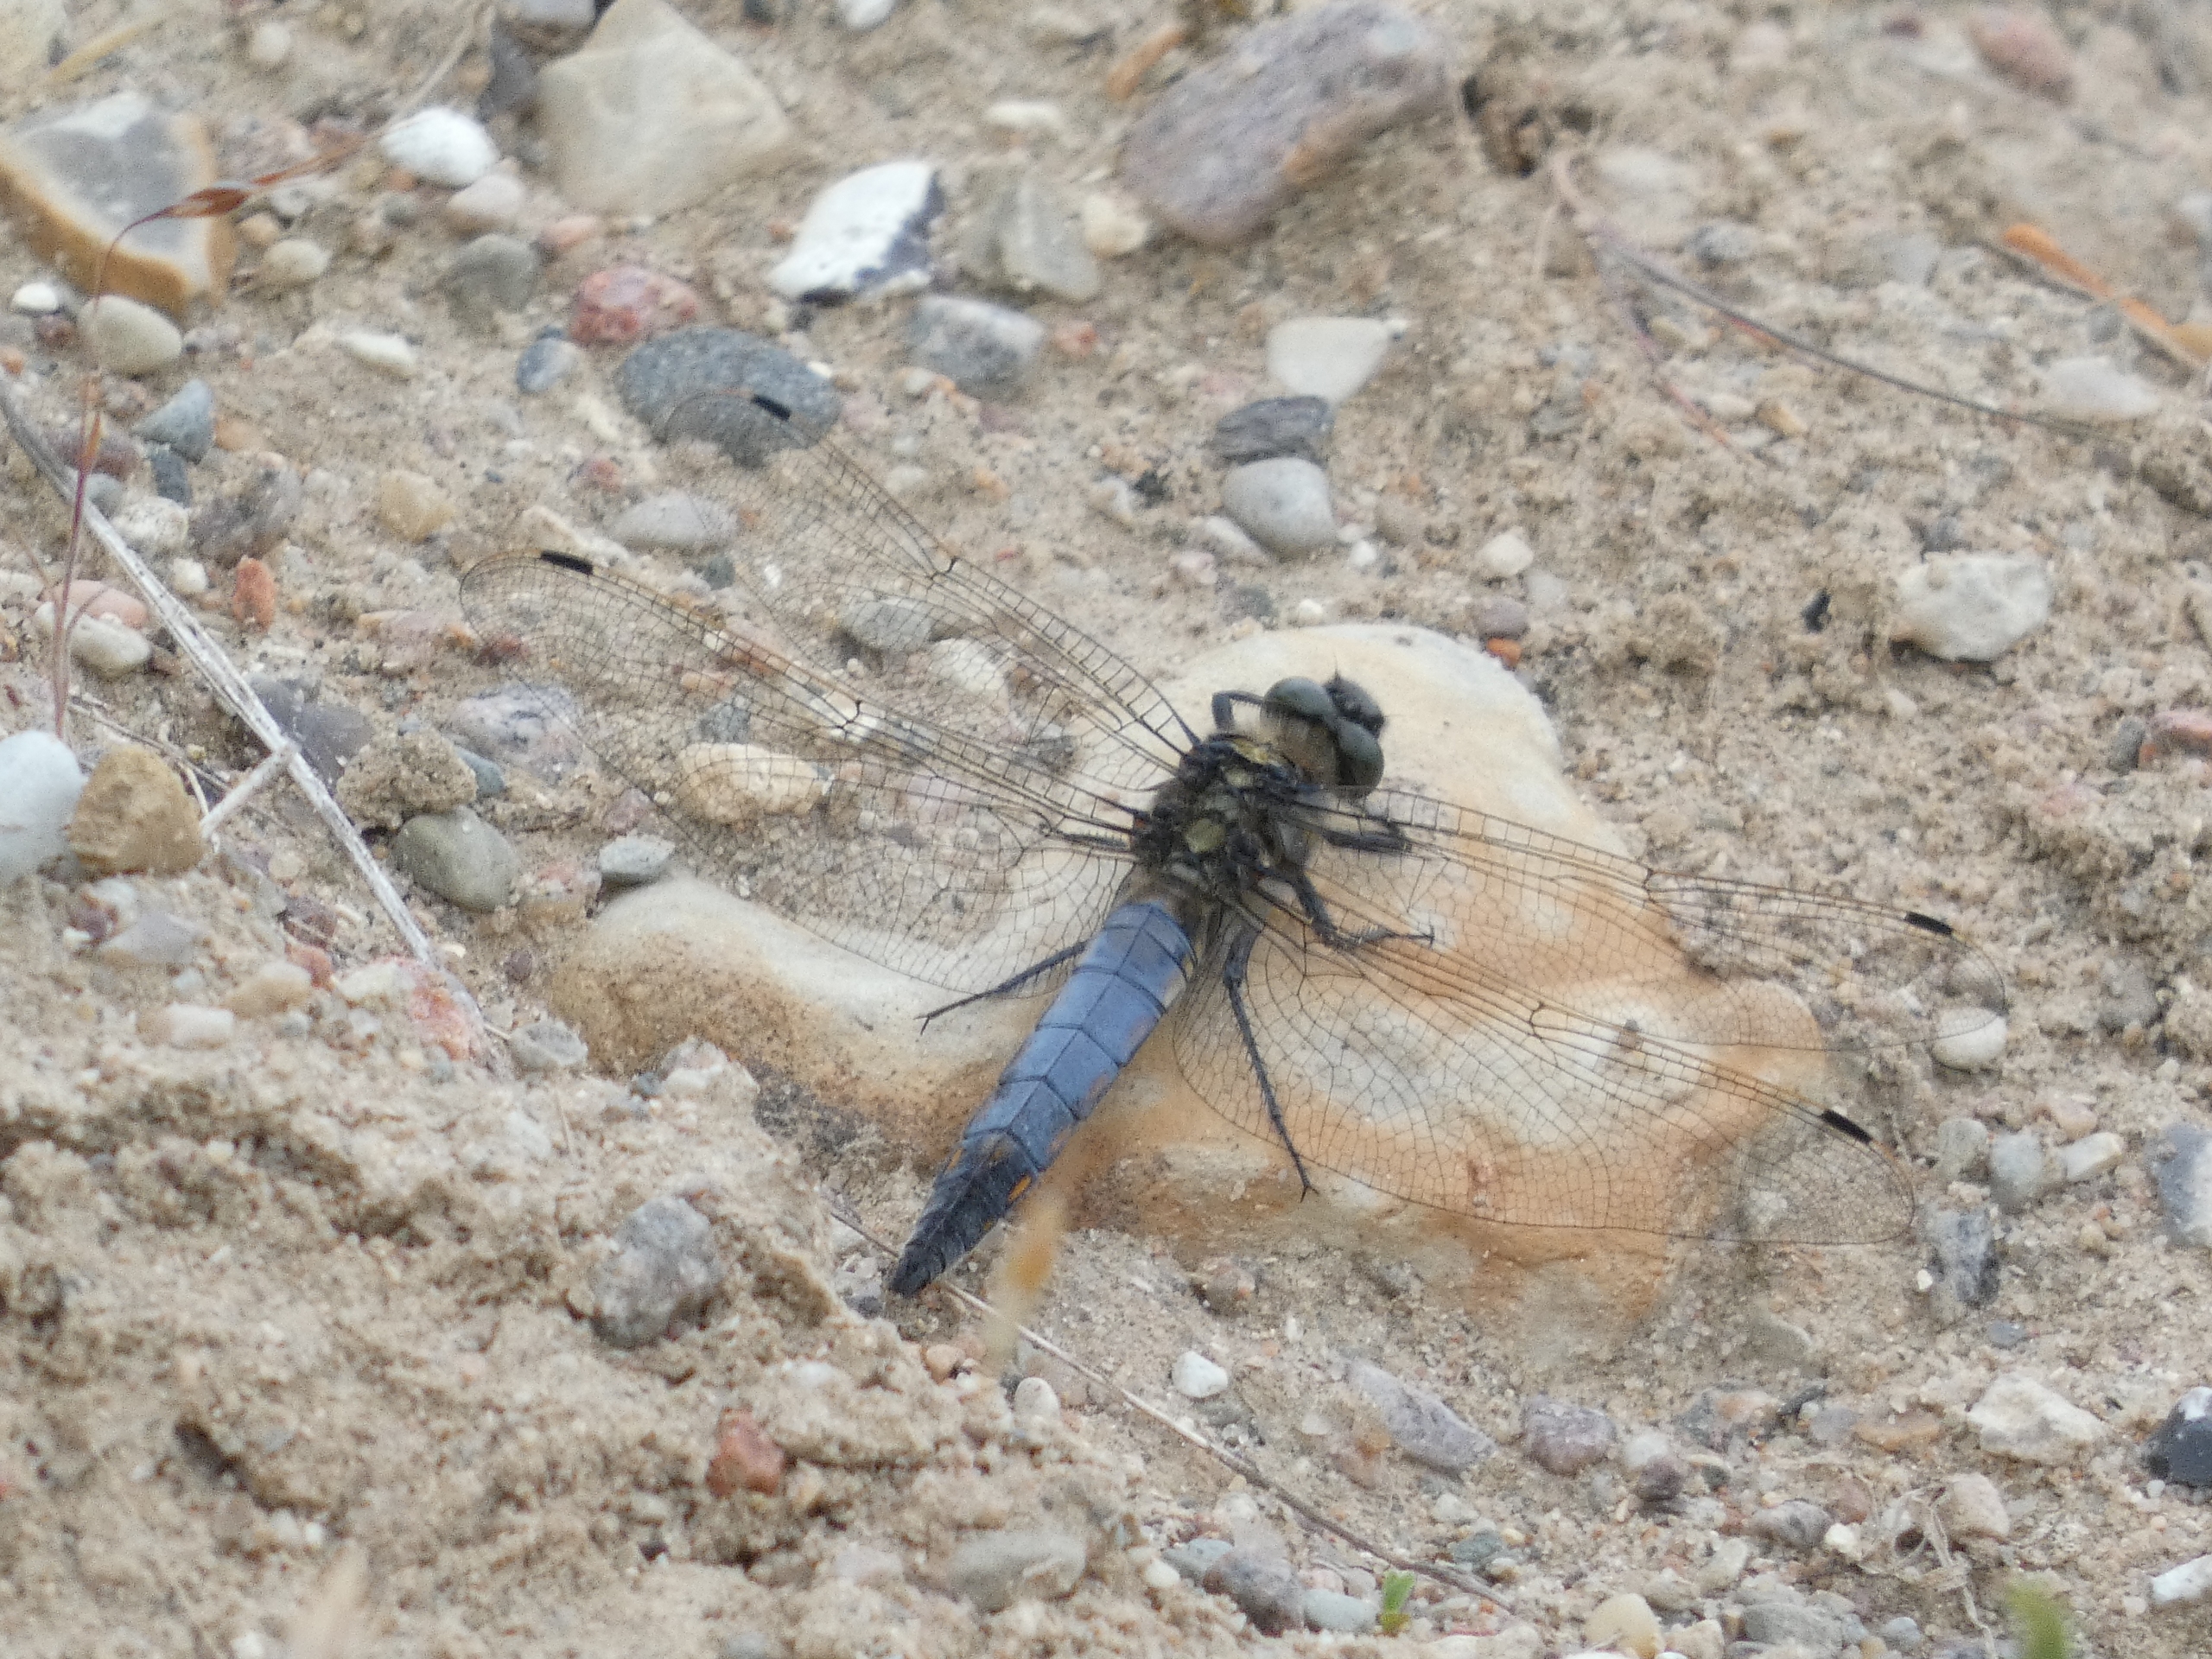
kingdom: Animalia
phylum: Arthropoda
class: Insecta
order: Odonata
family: Libellulidae
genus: Orthetrum
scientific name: Orthetrum cancellatum
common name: Stor blåpil
